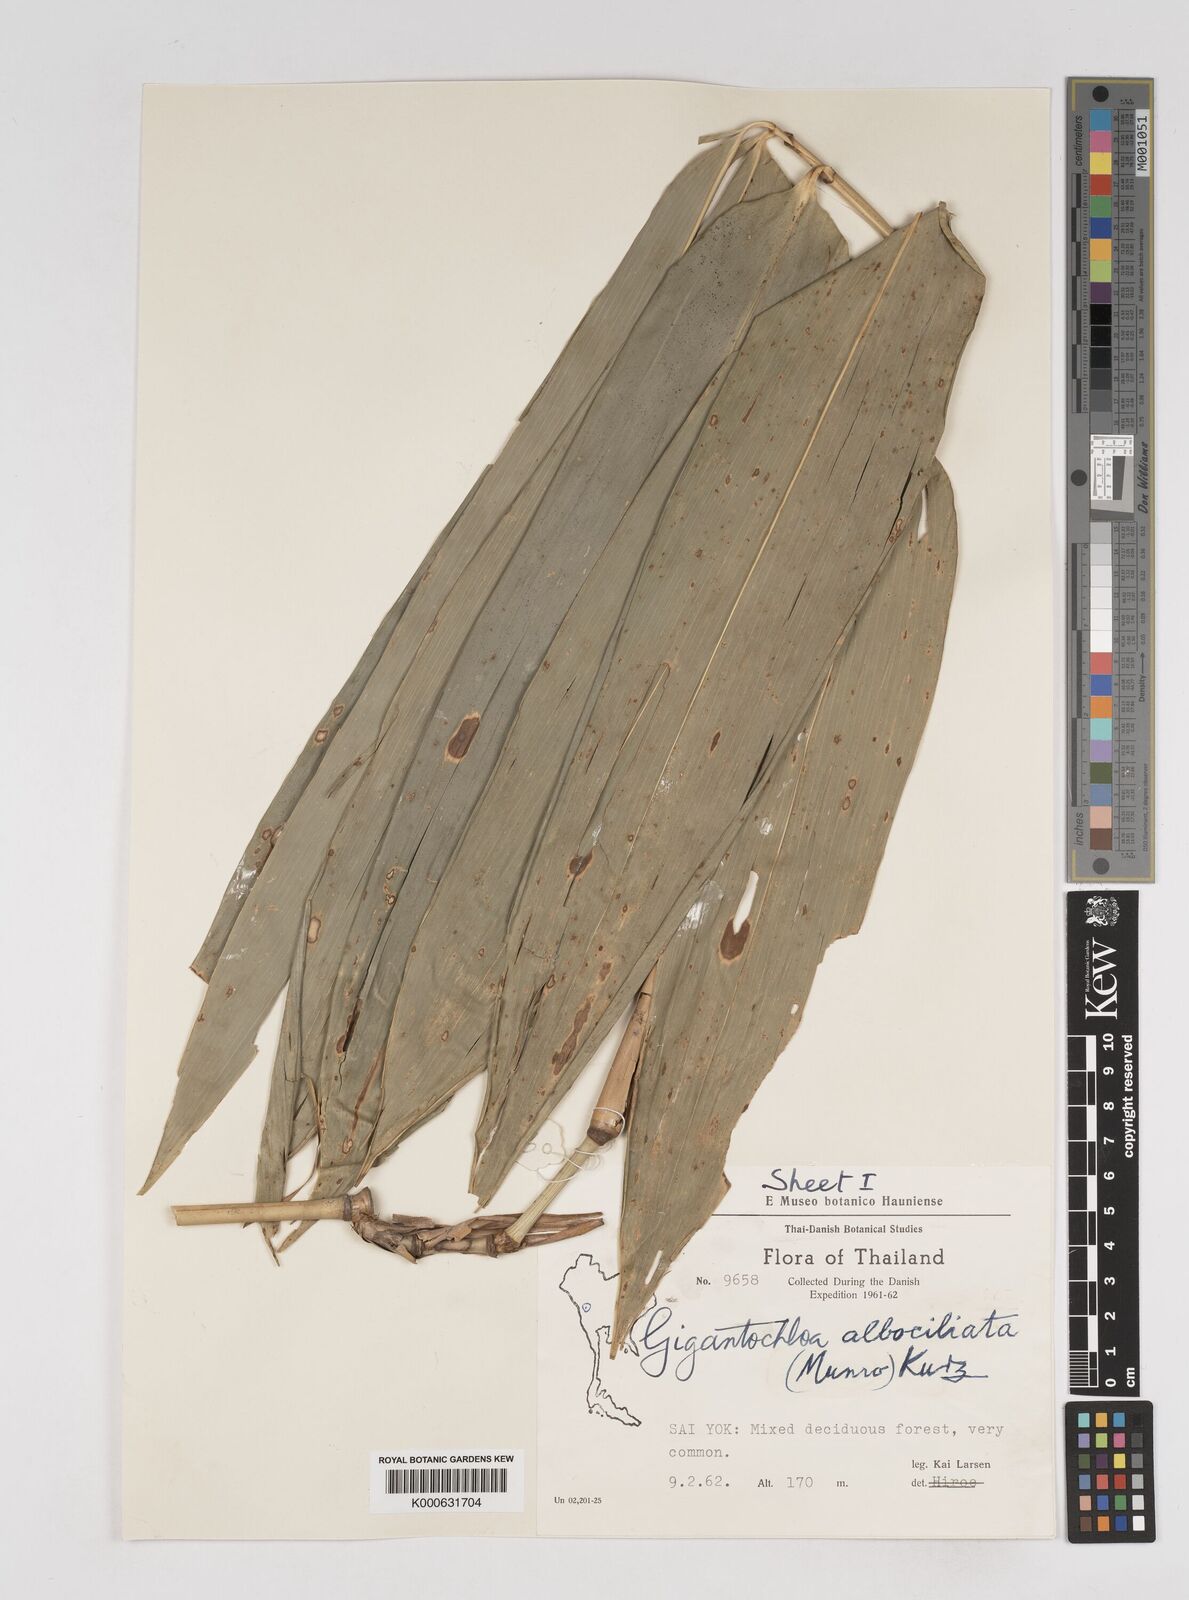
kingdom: Plantae
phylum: Tracheophyta
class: Liliopsida
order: Poales
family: Poaceae
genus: Gigantochloa
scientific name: Gigantochloa albociliata
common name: White-fringe gigantochloa
